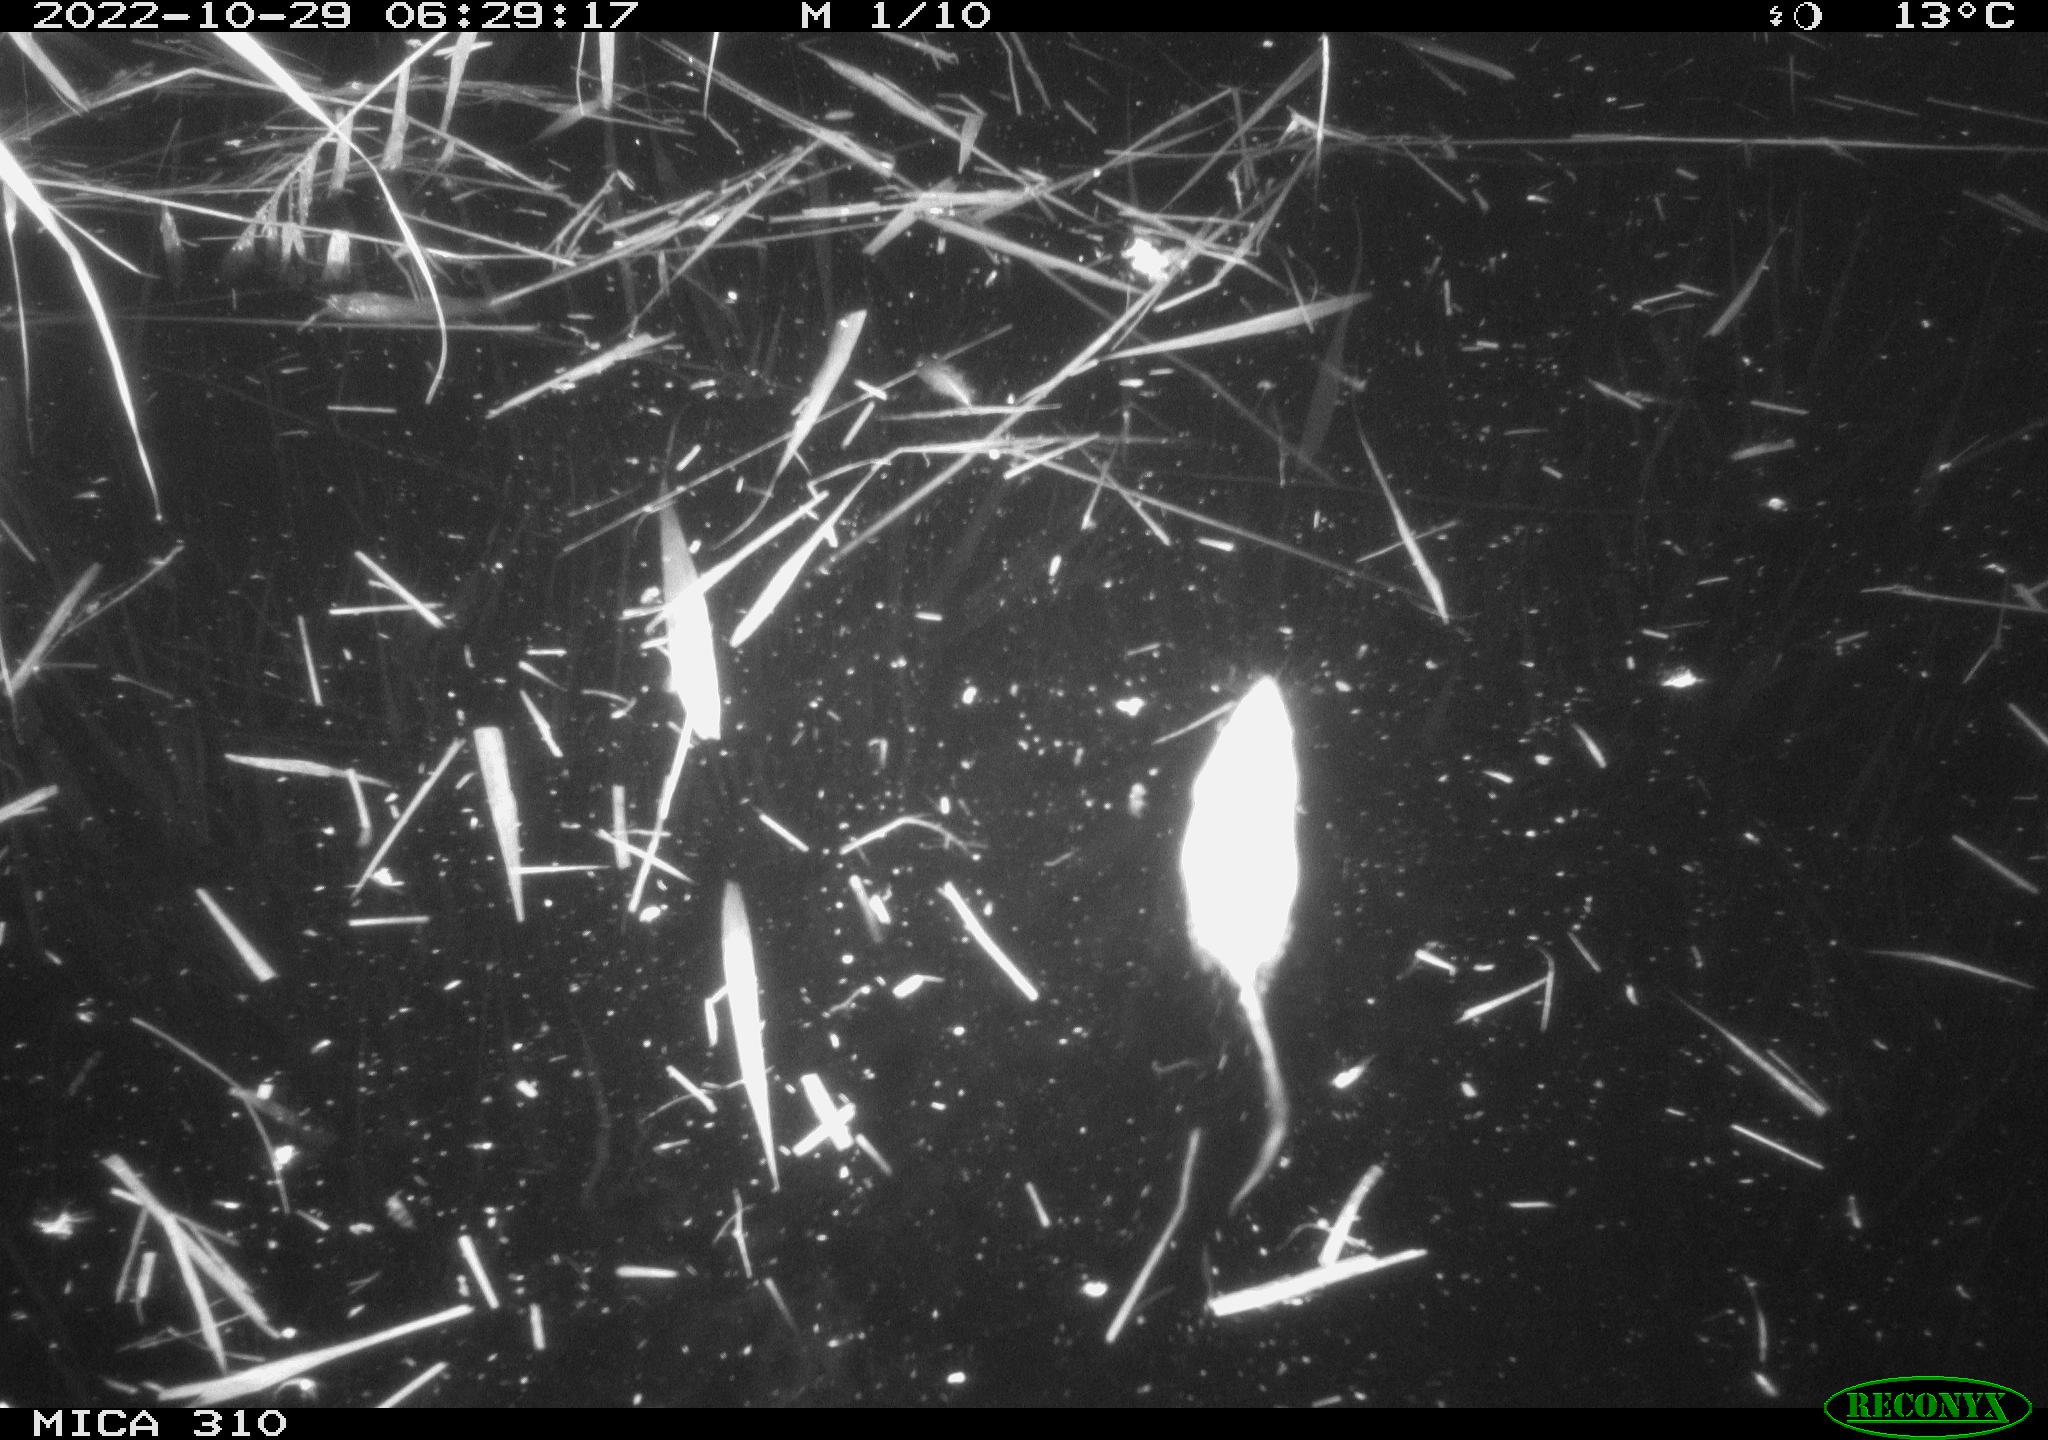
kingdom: Animalia
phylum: Chordata
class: Mammalia
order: Rodentia
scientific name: Rodentia
